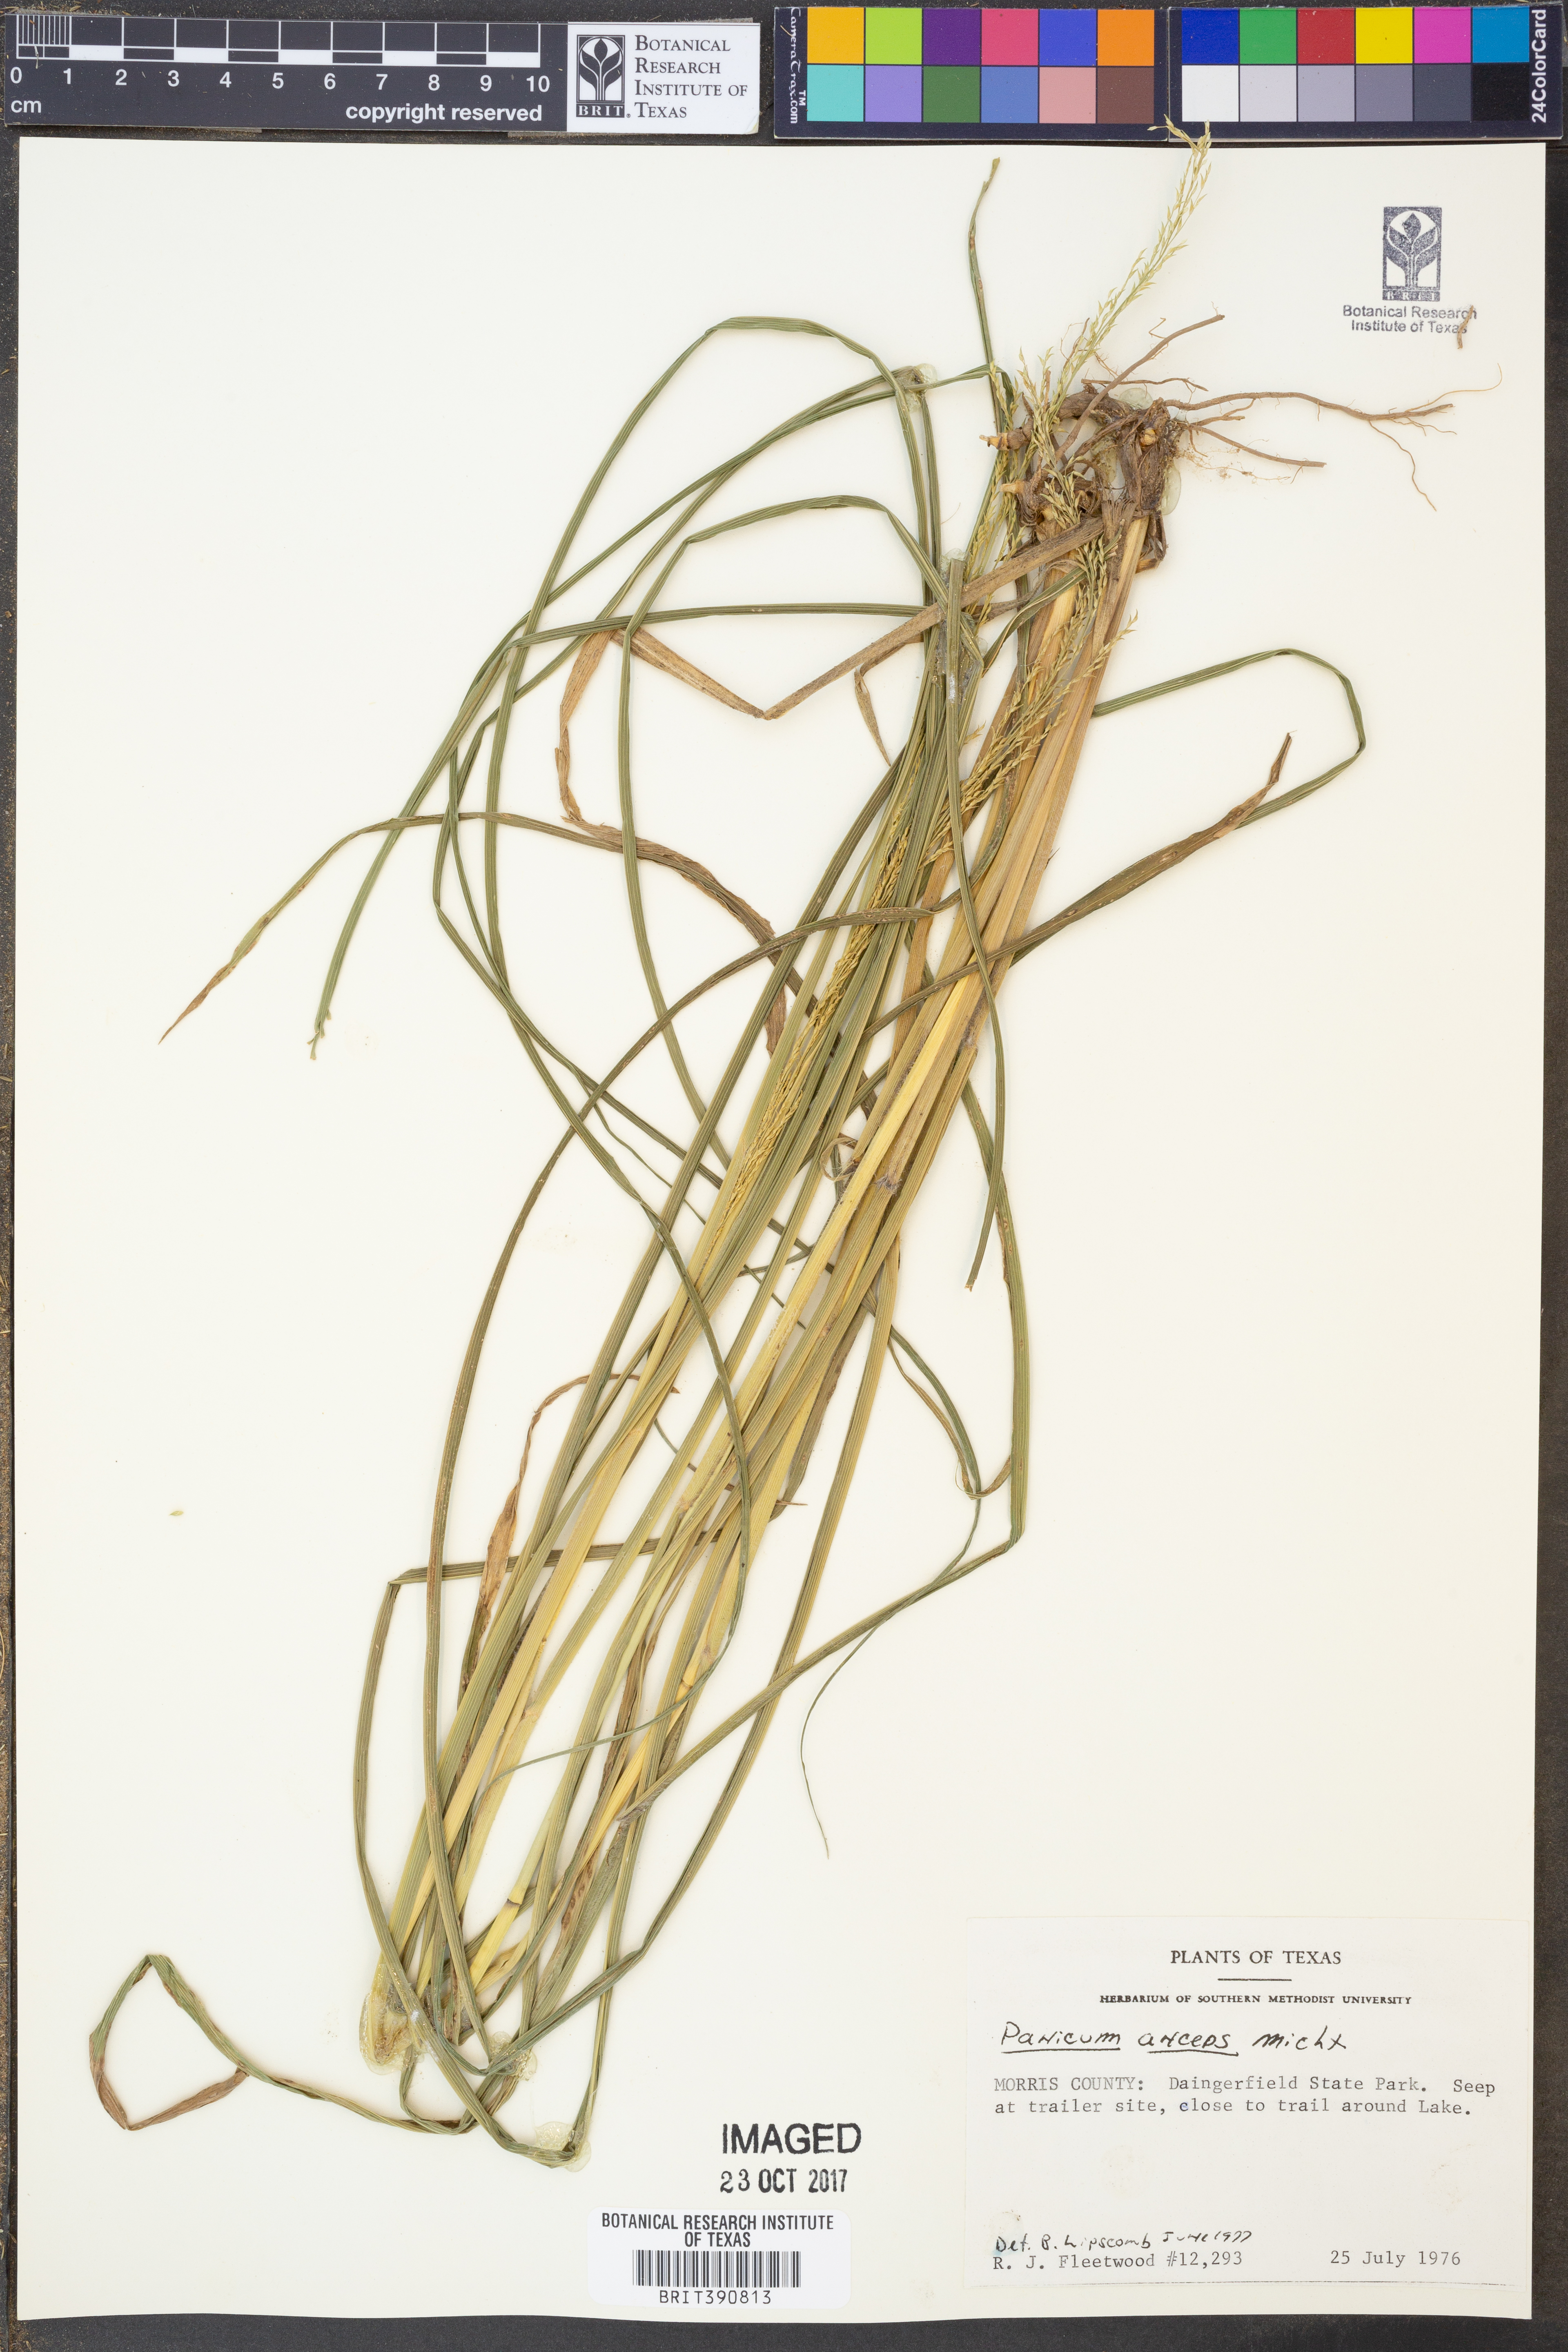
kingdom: Plantae
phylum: Tracheophyta
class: Liliopsida
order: Poales
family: Poaceae
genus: Coleataenia
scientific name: Coleataenia anceps
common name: Beaked panic grass
